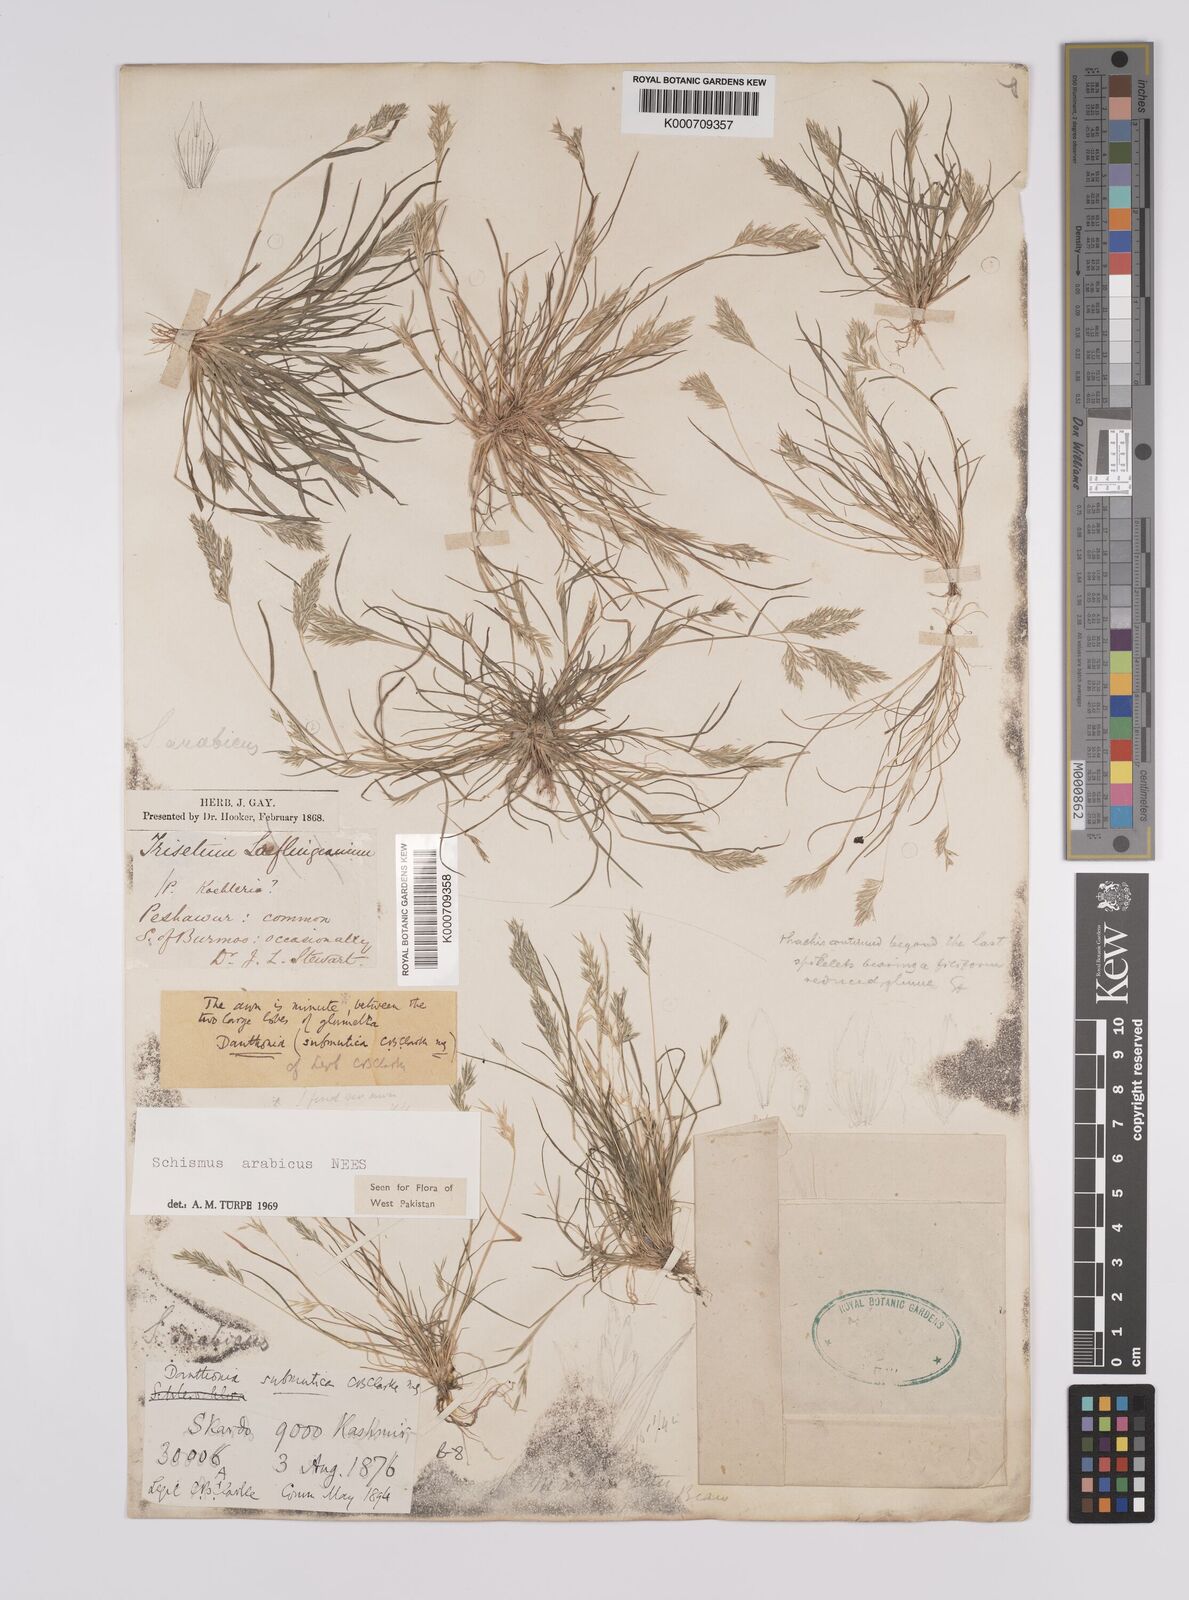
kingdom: Plantae
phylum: Tracheophyta
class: Liliopsida
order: Poales
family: Poaceae
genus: Schismus
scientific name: Schismus arabicus
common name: Arabian schismus
